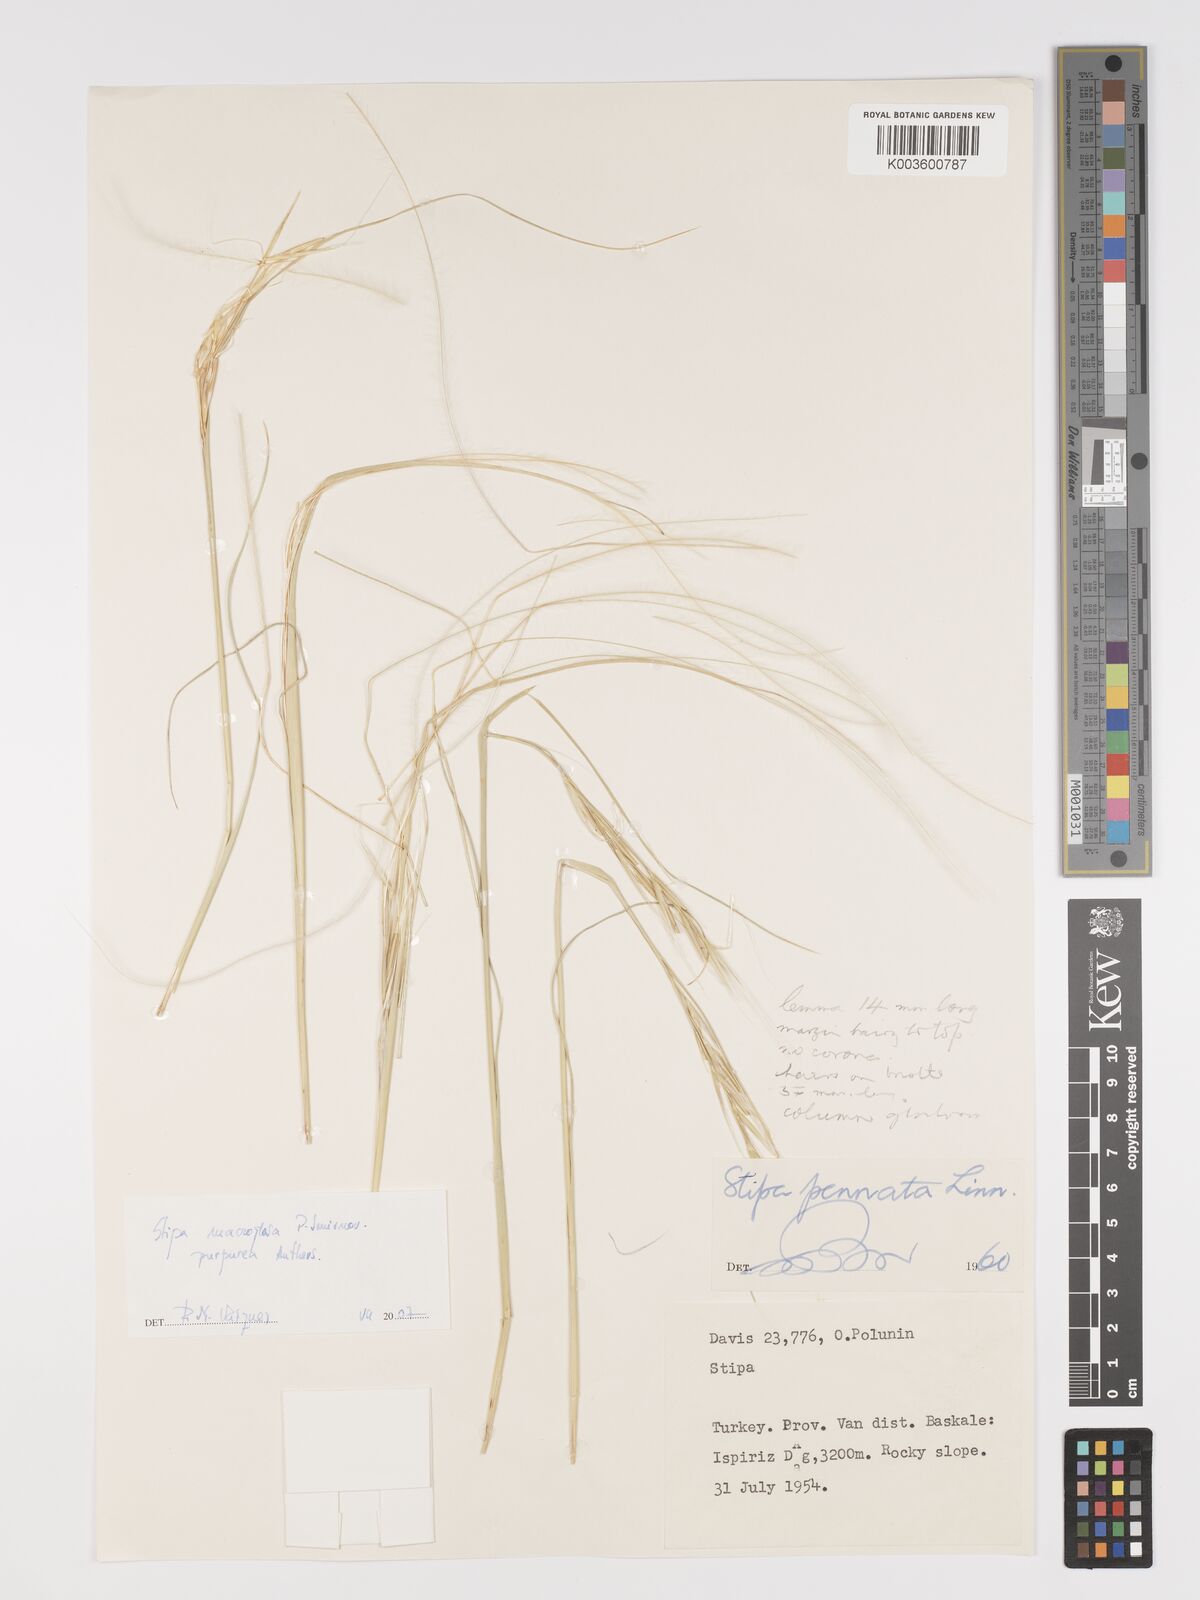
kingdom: Plantae
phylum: Tracheophyta
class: Liliopsida
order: Poales
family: Poaceae
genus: Stipa
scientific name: Stipa macroglossa
